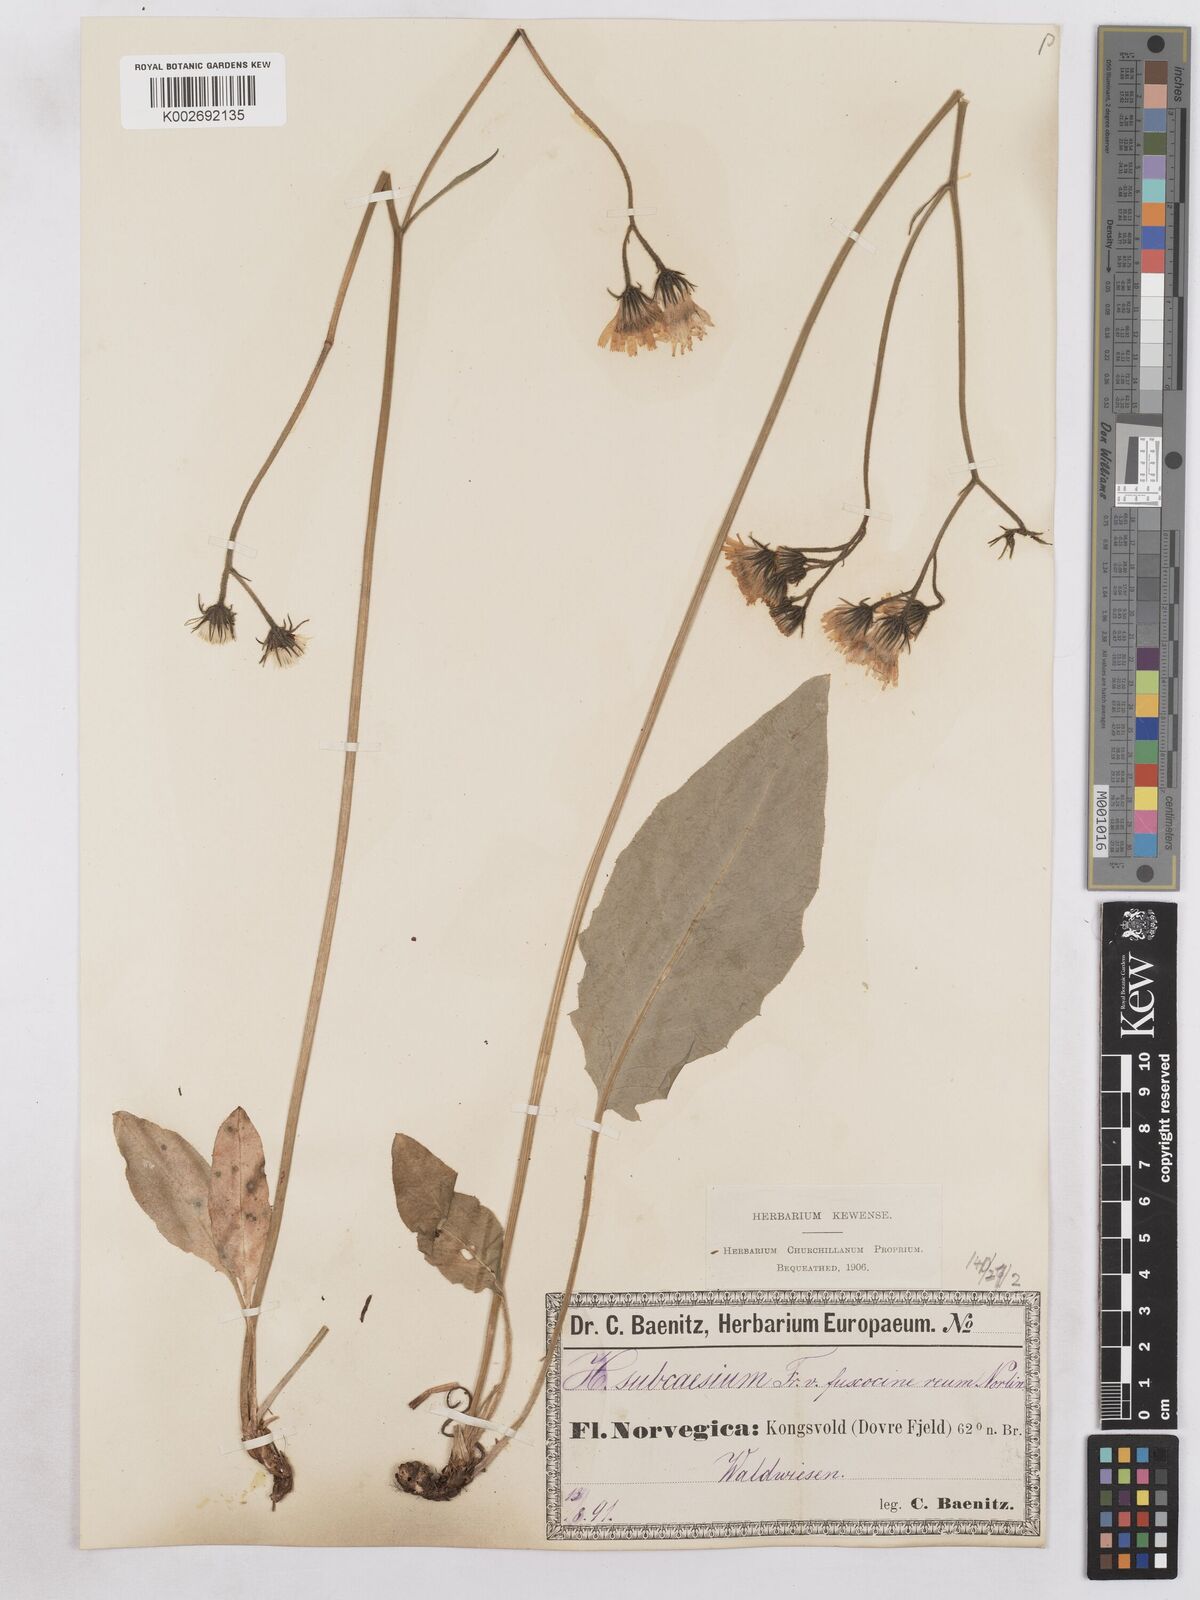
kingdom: Plantae
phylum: Tracheophyta
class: Magnoliopsida
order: Asterales
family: Asteraceae
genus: Hieracium
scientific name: Hieracium fuscocinereum
